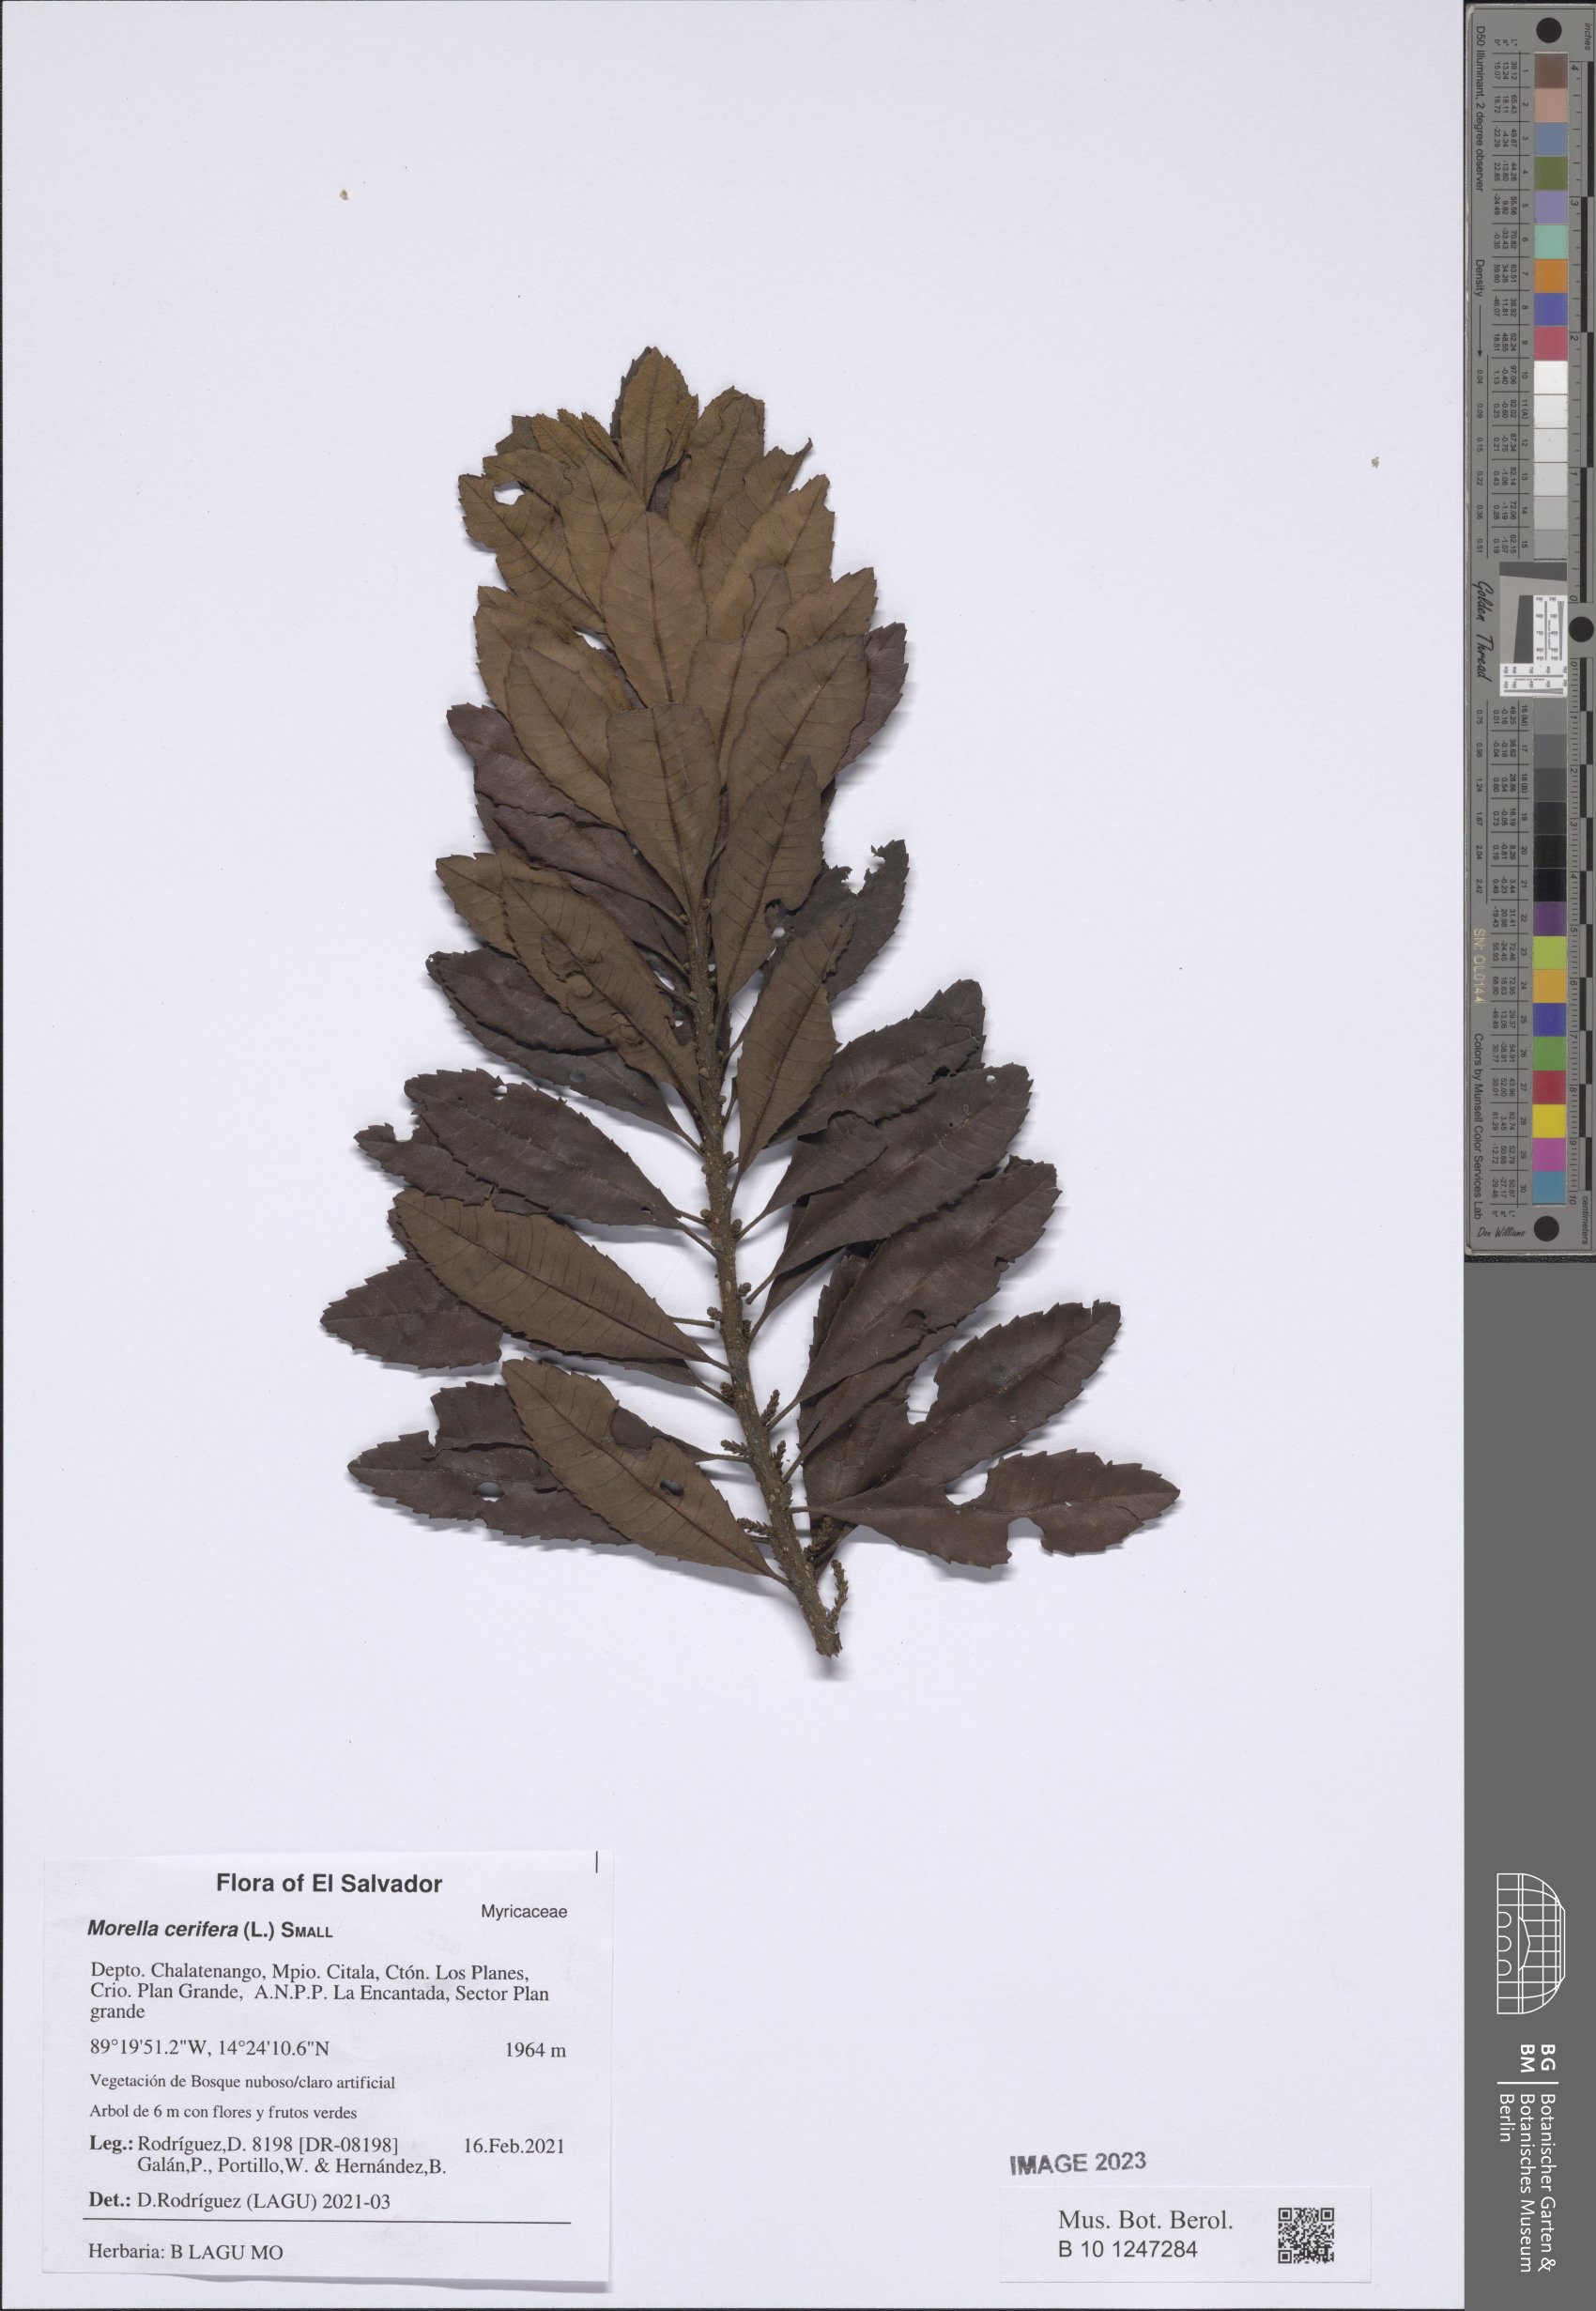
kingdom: Plantae
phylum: Tracheophyta
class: Magnoliopsida
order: Fagales
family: Myricaceae
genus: Morella
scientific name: Morella cerifera
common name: Wax myrtle
